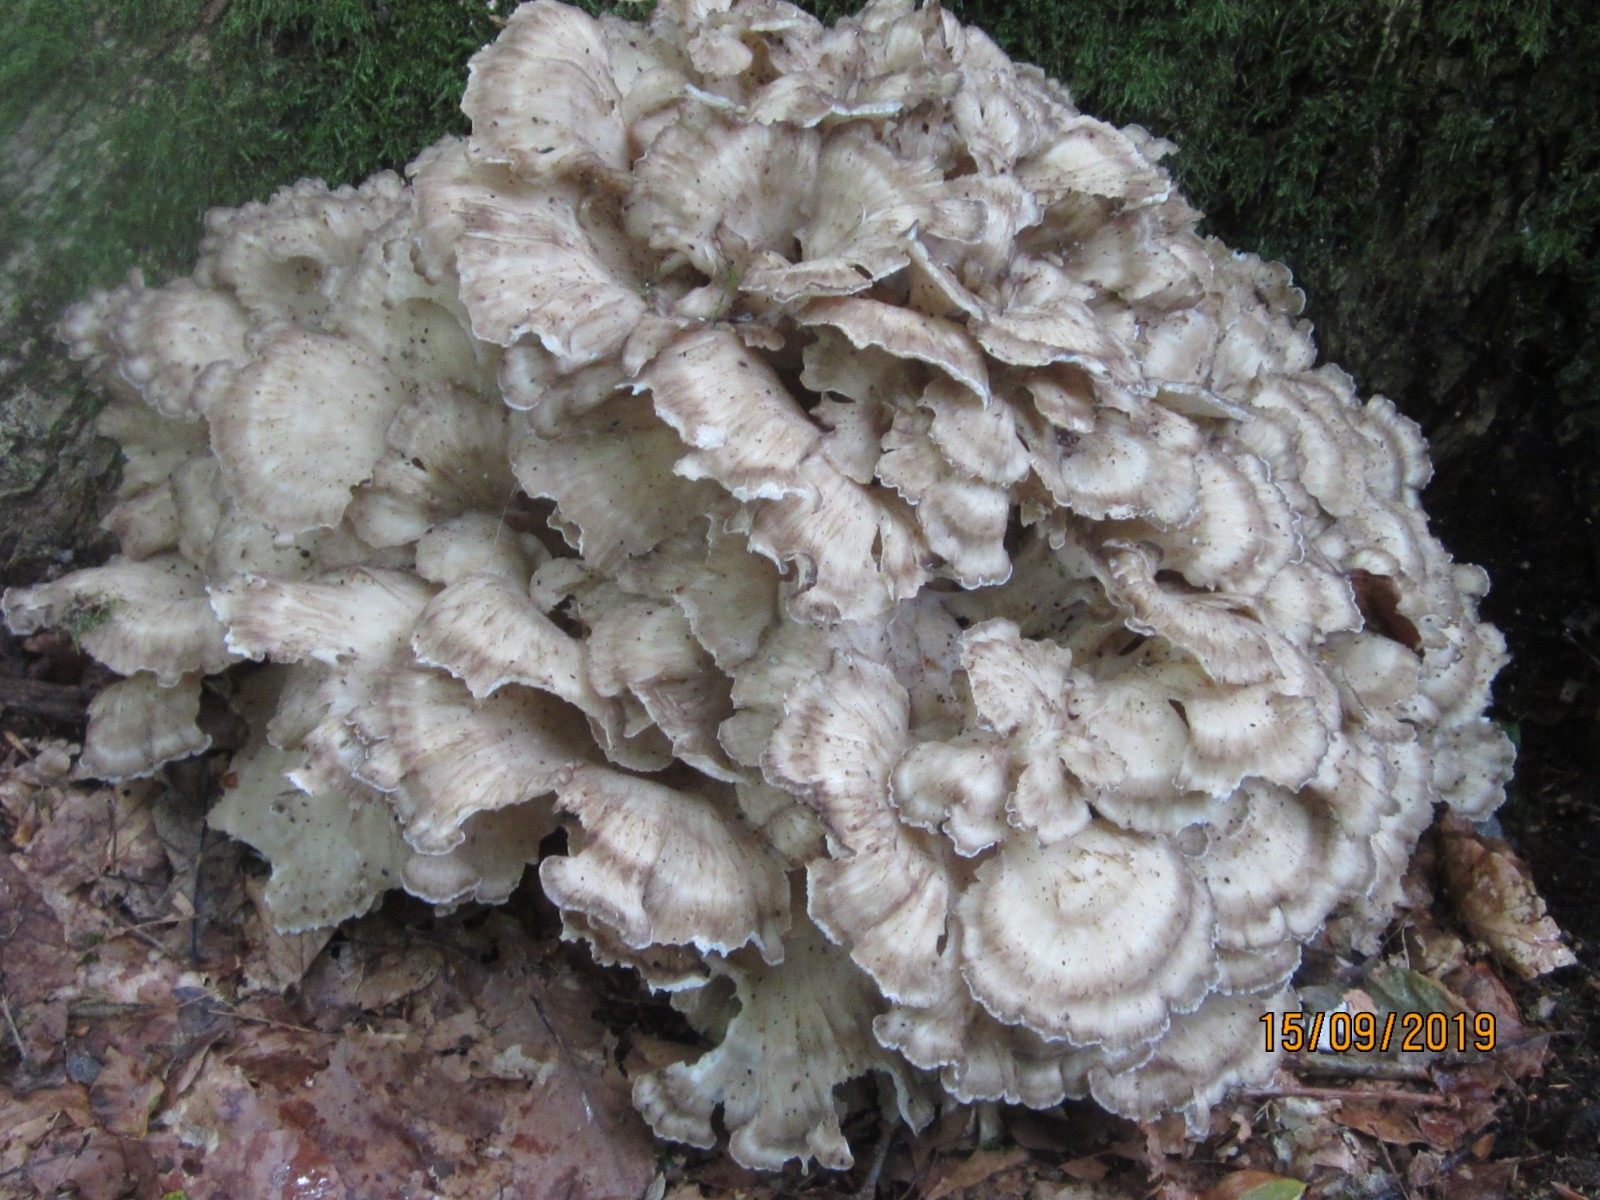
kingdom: Fungi
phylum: Basidiomycota
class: Agaricomycetes
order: Polyporales
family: Grifolaceae
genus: Grifola
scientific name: Grifola frondosa
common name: tueporesvamp
